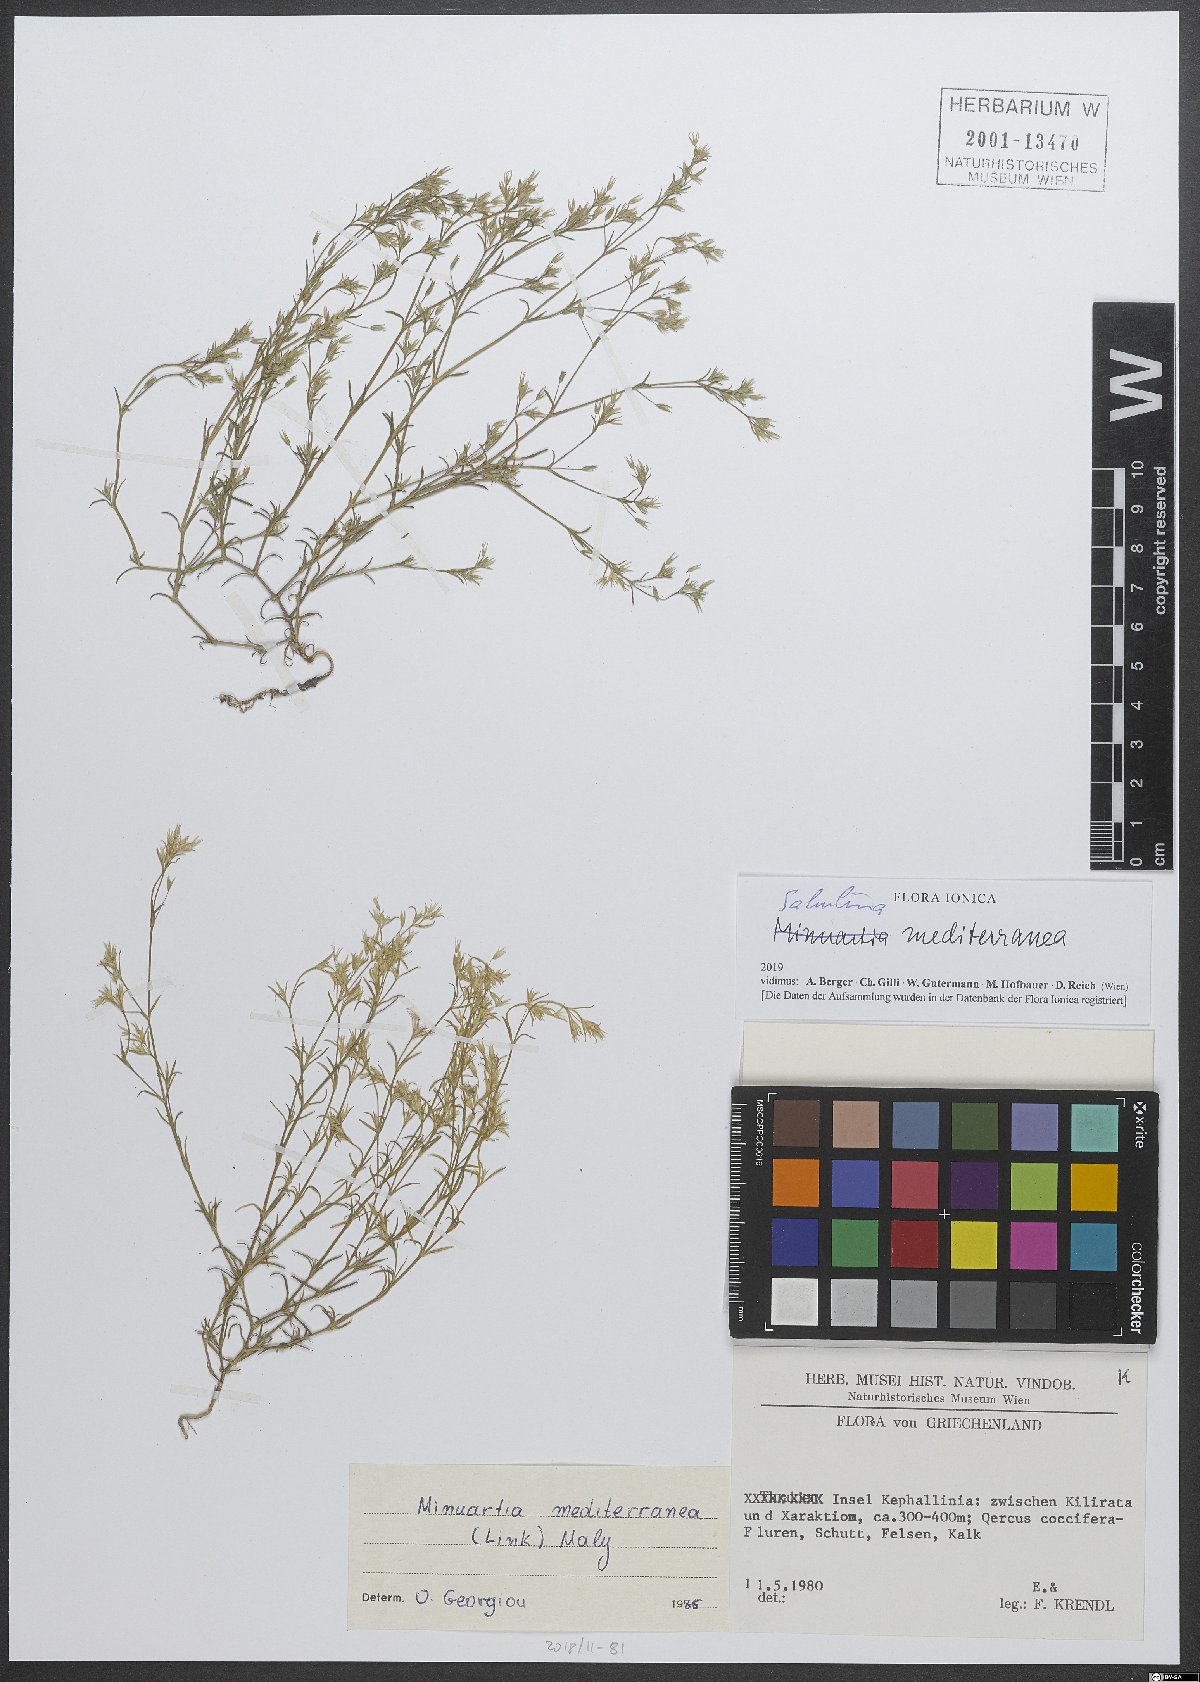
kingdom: Plantae
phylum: Tracheophyta
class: Magnoliopsida
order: Caryophyllales
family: Caryophyllaceae
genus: Sabulina
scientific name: Sabulina mediterranea
